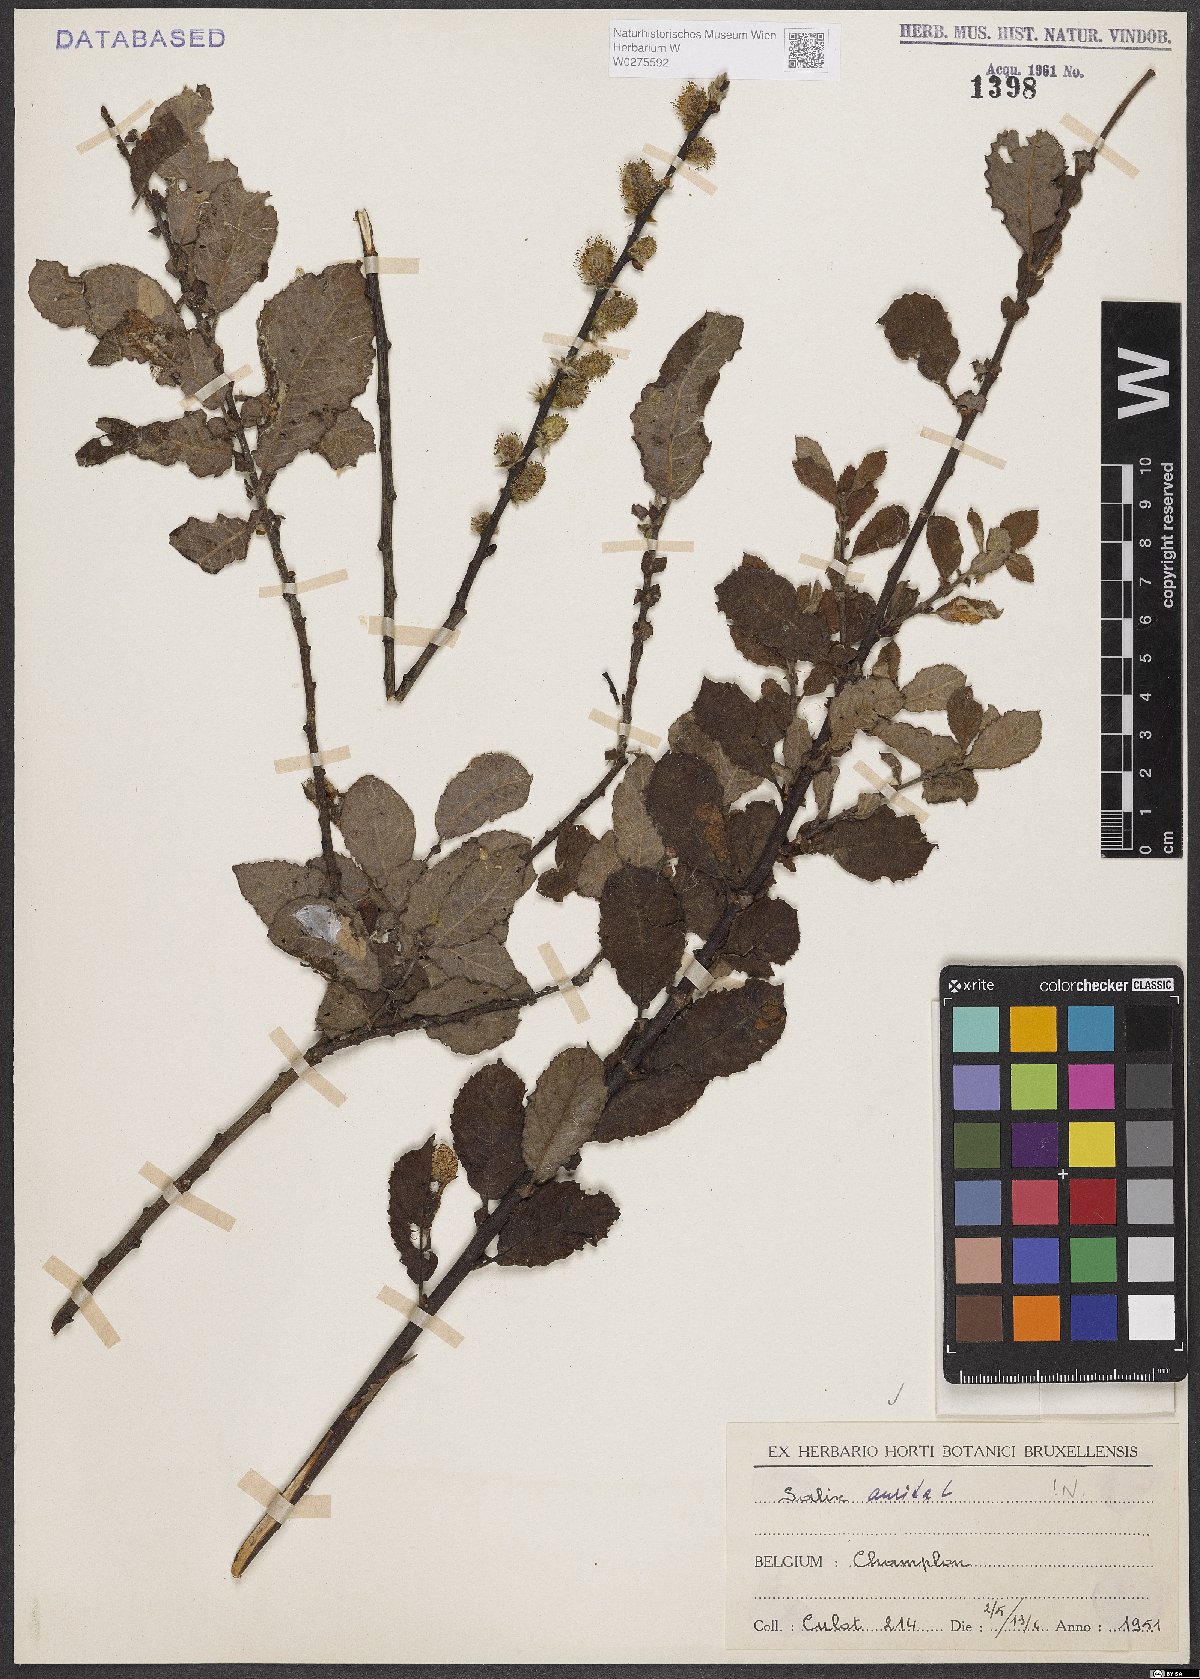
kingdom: Plantae
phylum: Tracheophyta
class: Magnoliopsida
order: Malpighiales
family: Salicaceae
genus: Salix
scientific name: Salix aurita
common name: Eared willow
